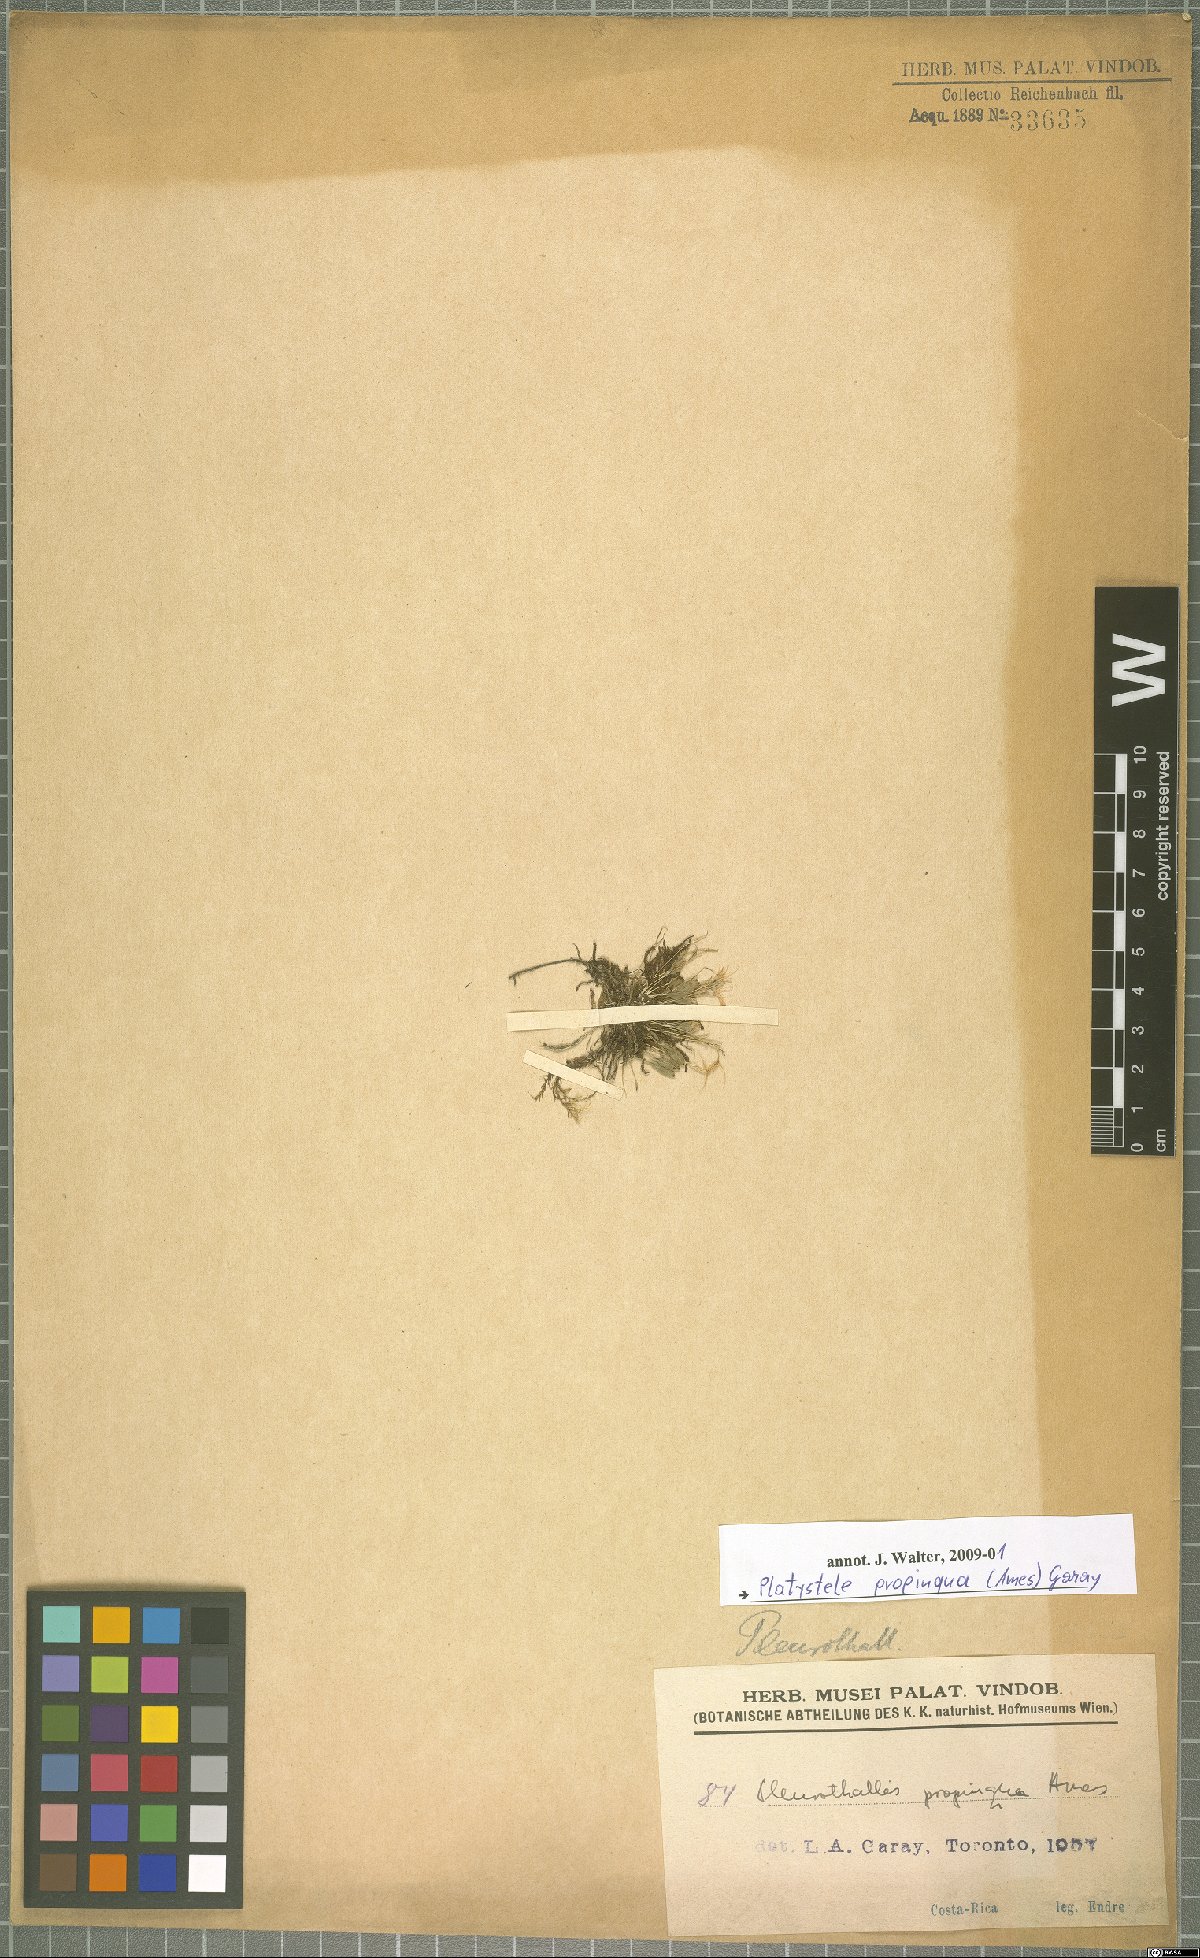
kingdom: Plantae
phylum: Tracheophyta
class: Liliopsida
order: Asparagales
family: Orchidaceae
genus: Platystele
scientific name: Platystele propinqua
